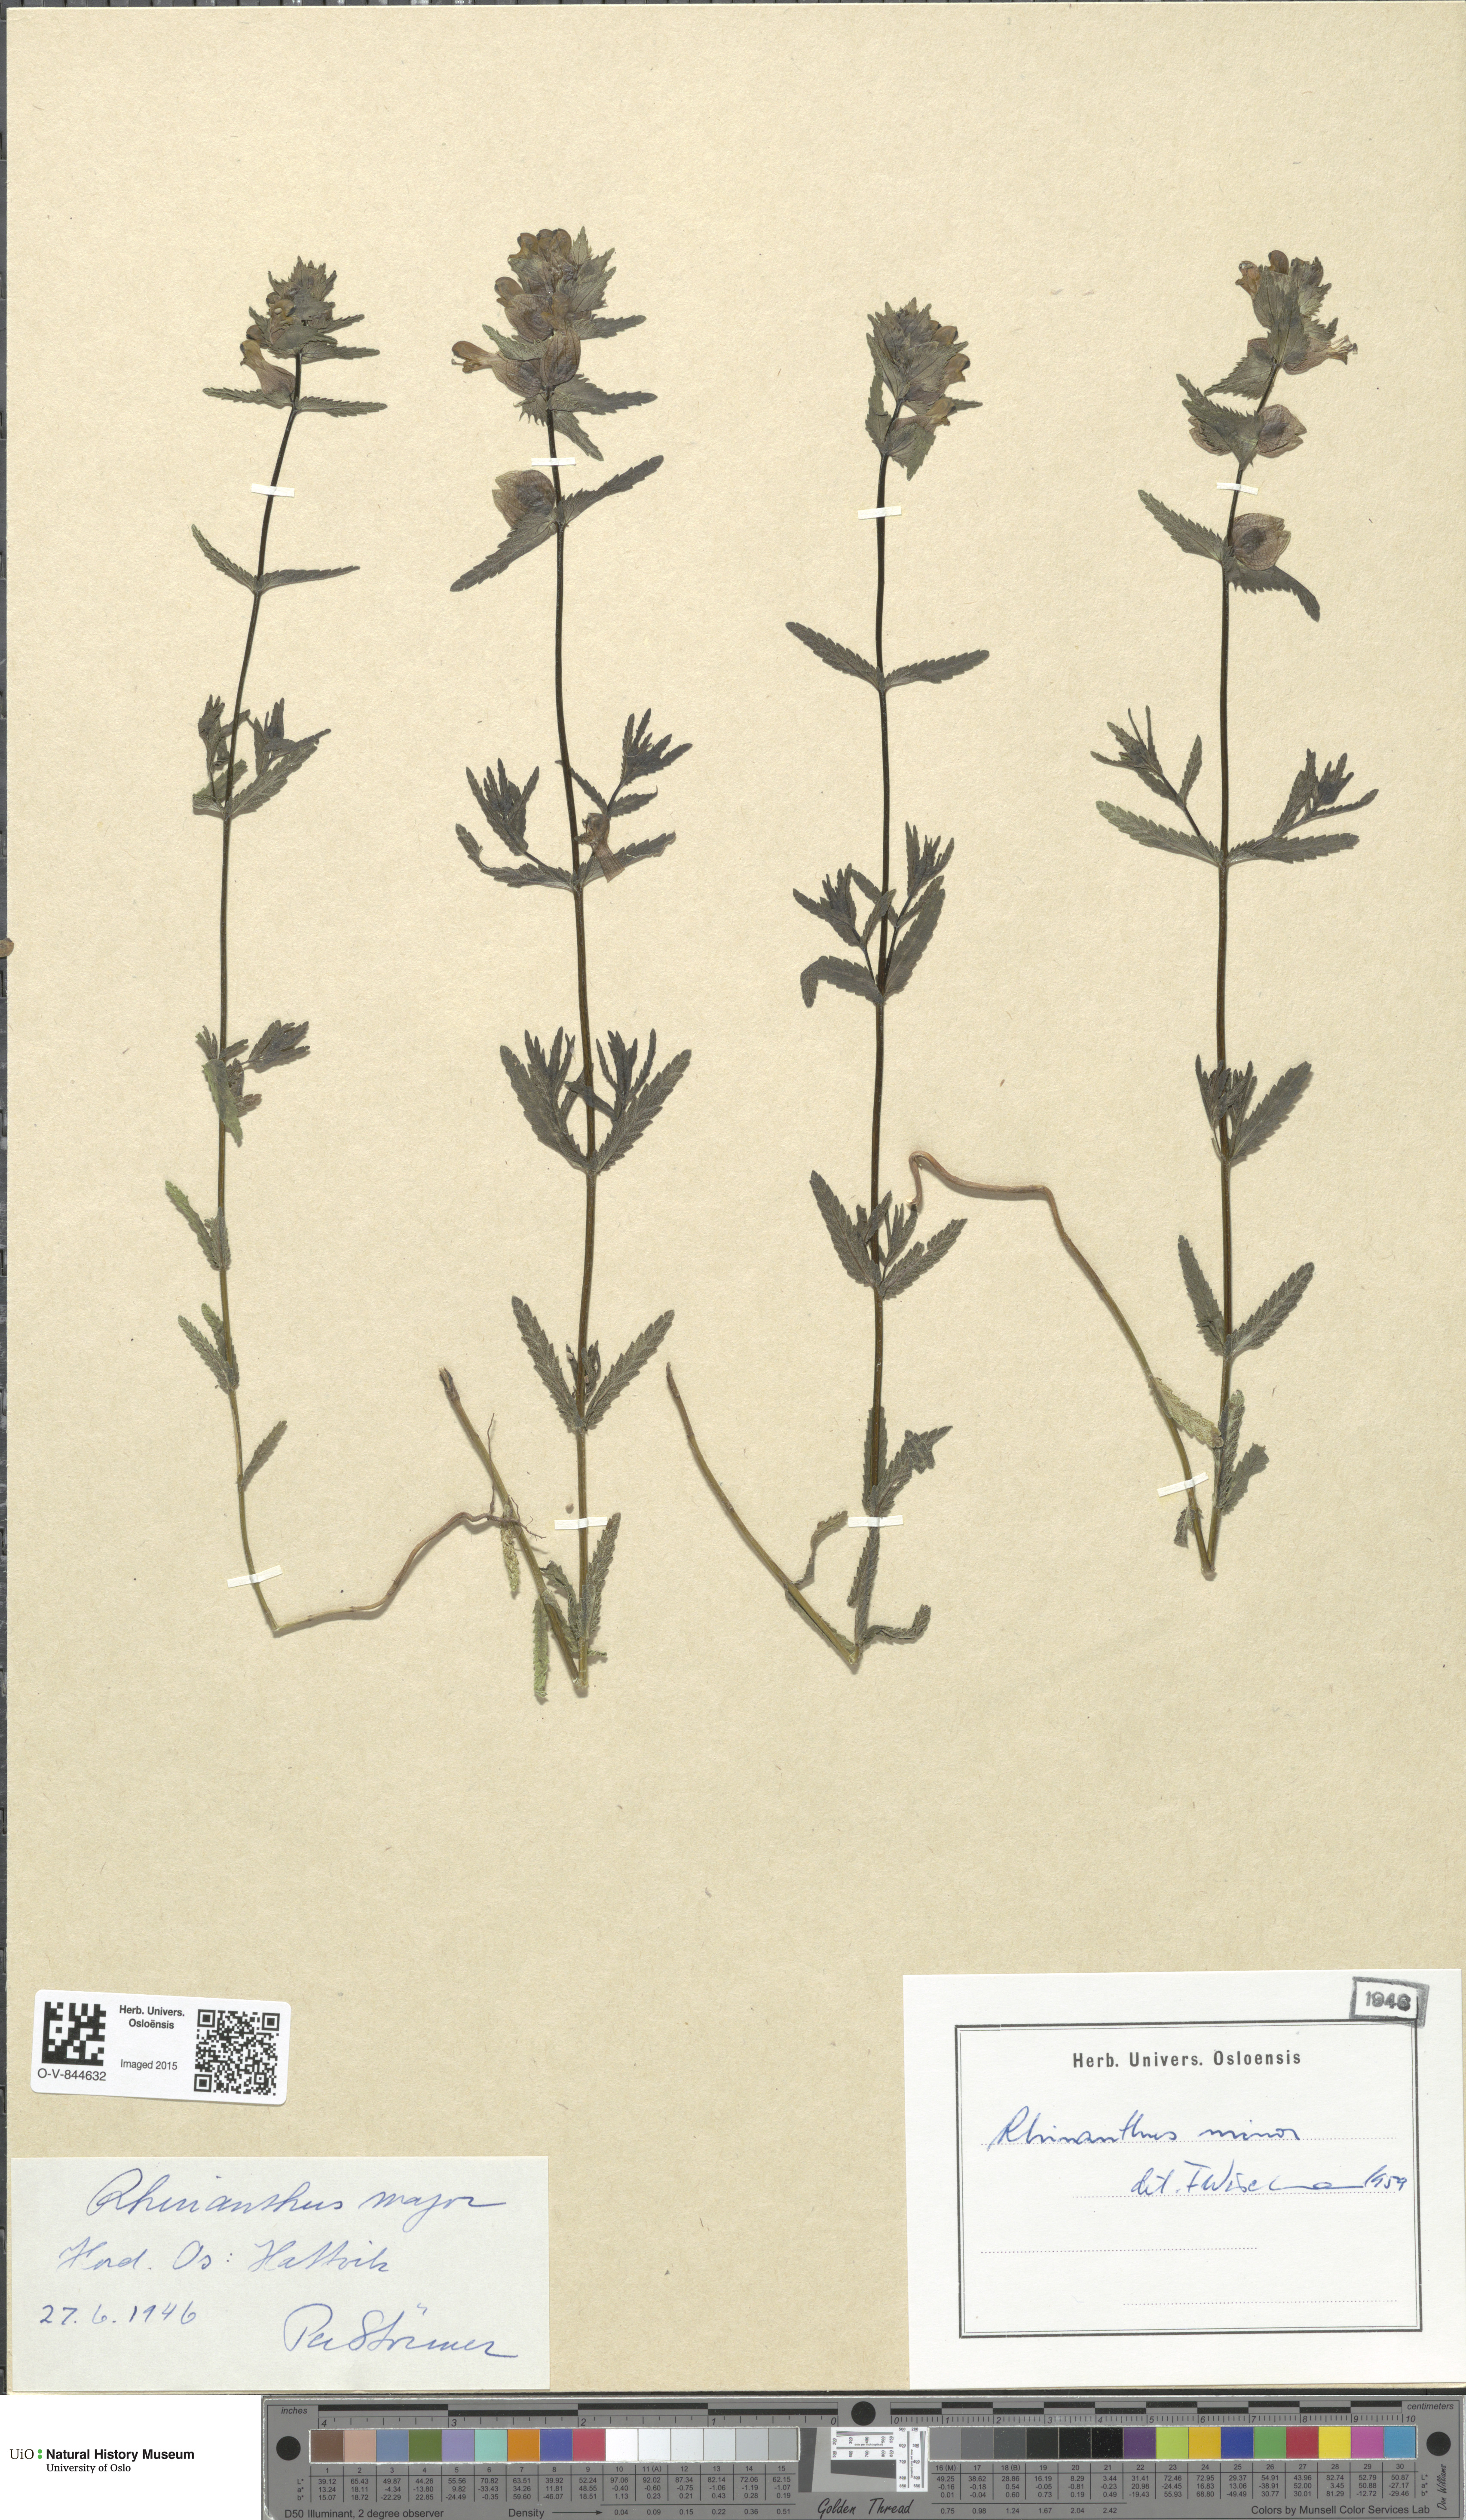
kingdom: Plantae
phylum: Tracheophyta
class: Magnoliopsida
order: Lamiales
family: Orobanchaceae
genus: Rhinanthus
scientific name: Rhinanthus serotinus
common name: Late-flowering yellow rattle
